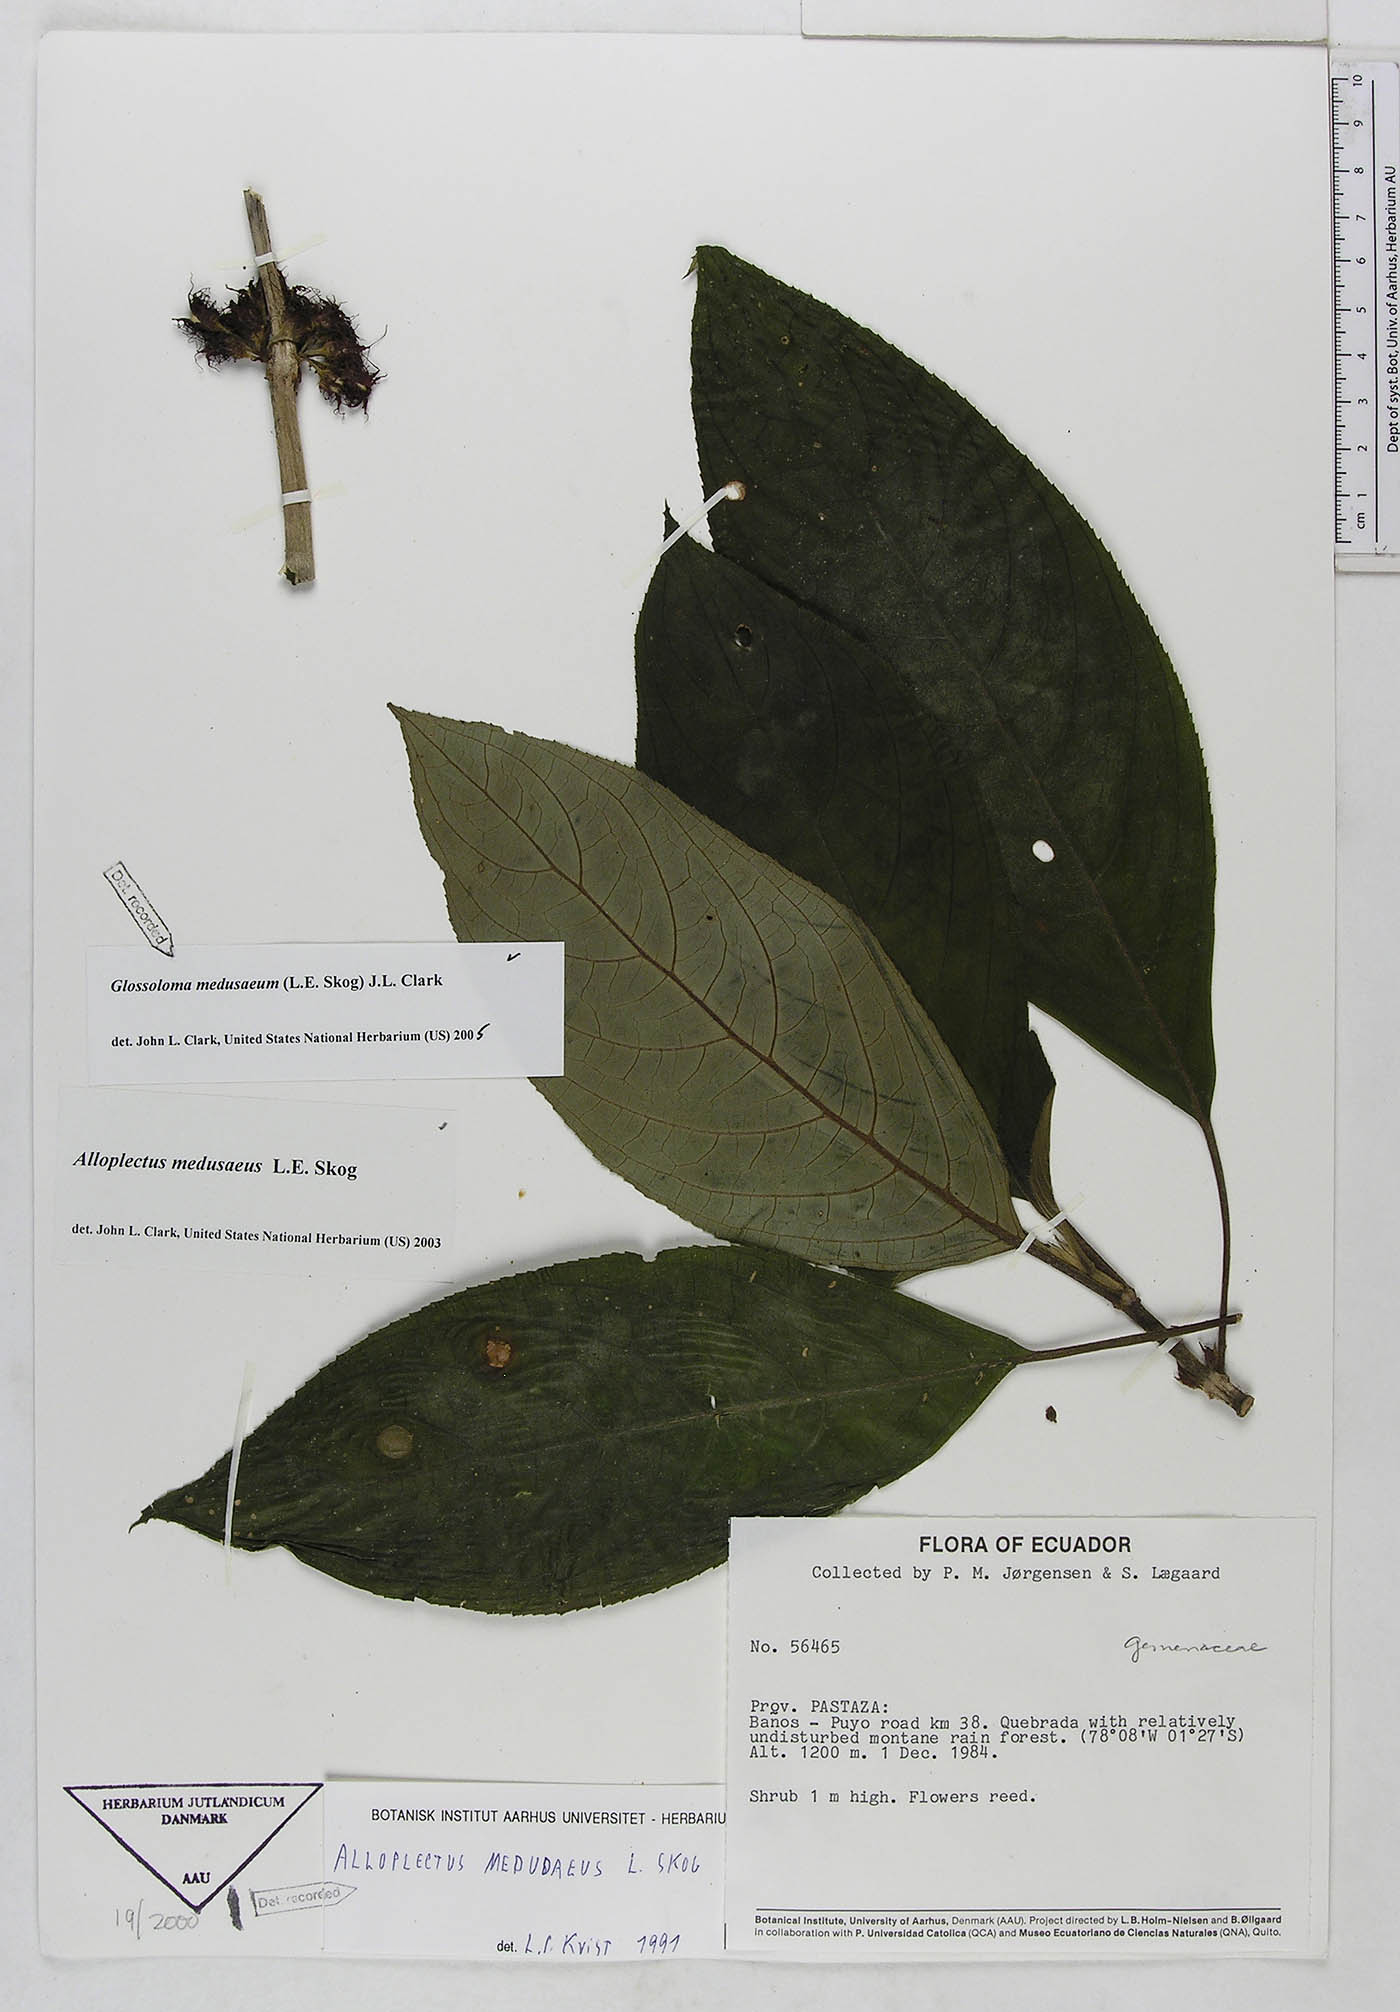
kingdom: Plantae
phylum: Tracheophyta
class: Magnoliopsida
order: Lamiales
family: Gesneriaceae
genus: Glossoloma
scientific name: Glossoloma medusaeum
